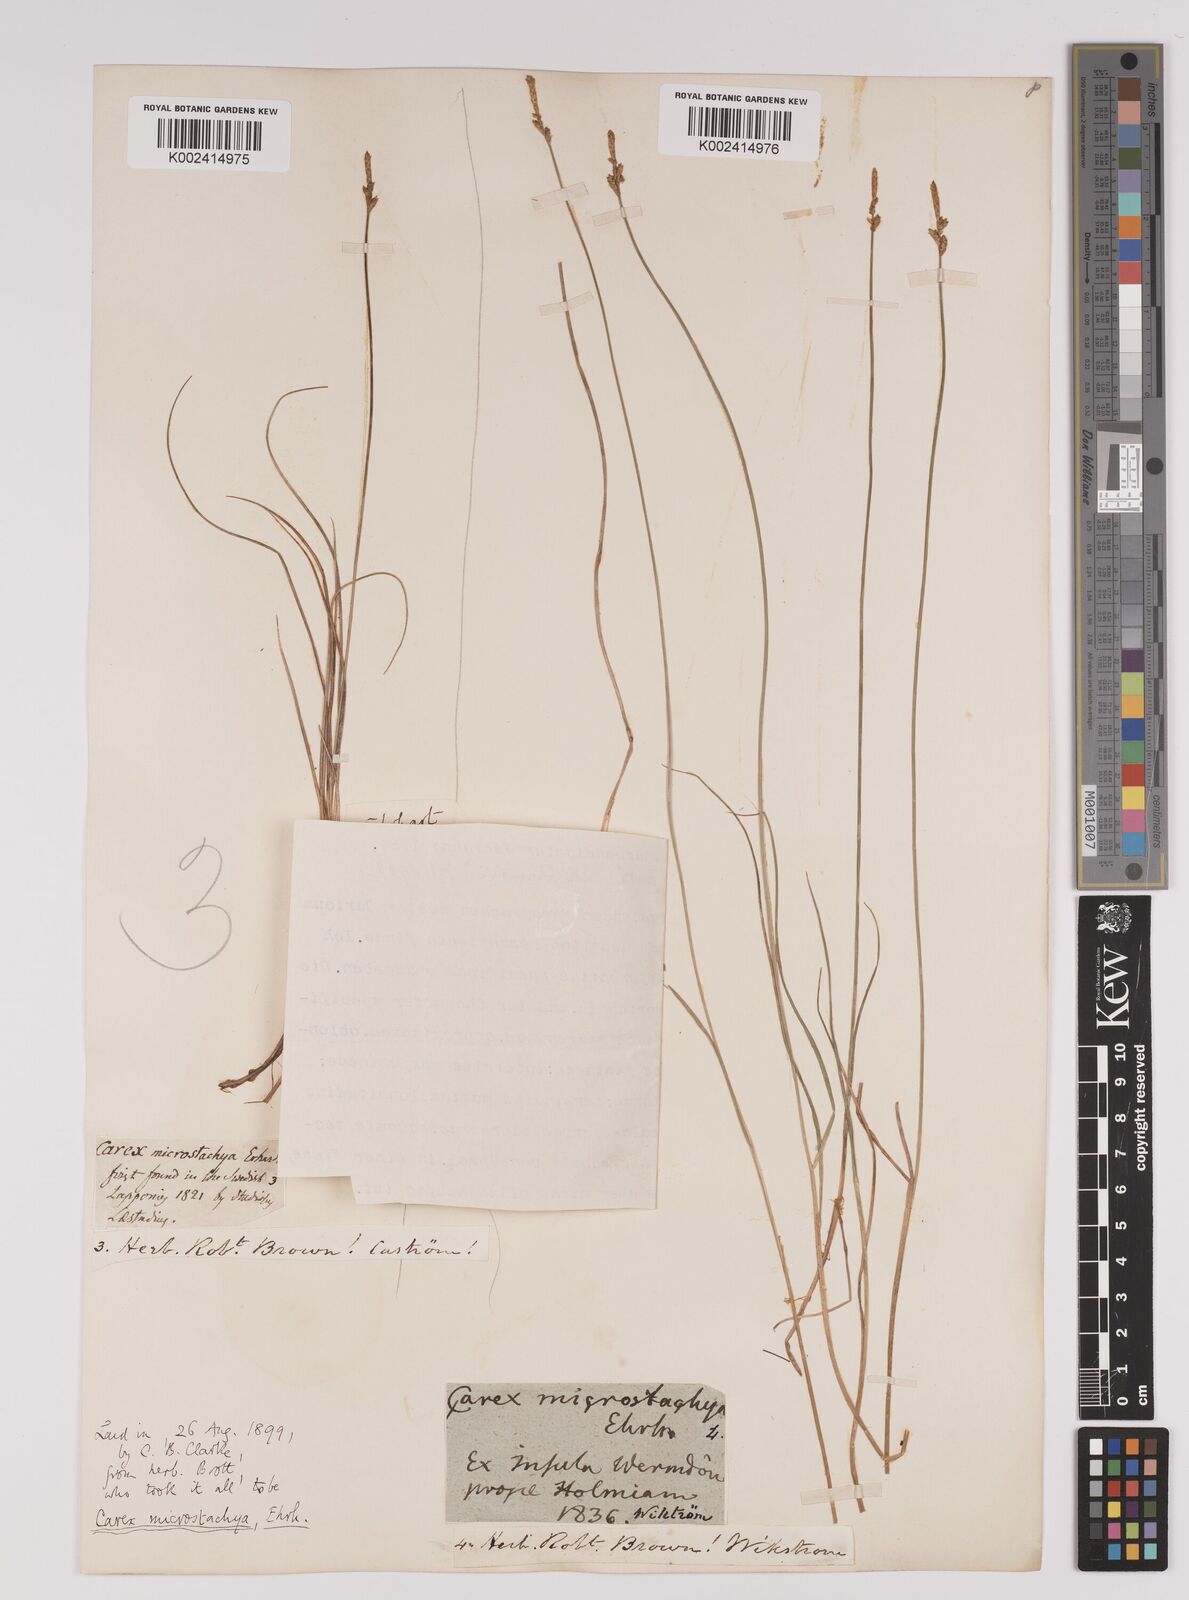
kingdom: Plantae
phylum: Tracheophyta
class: Liliopsida
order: Poales
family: Cyperaceae
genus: Carex
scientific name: Carex dioica
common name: Dioecious sedge
